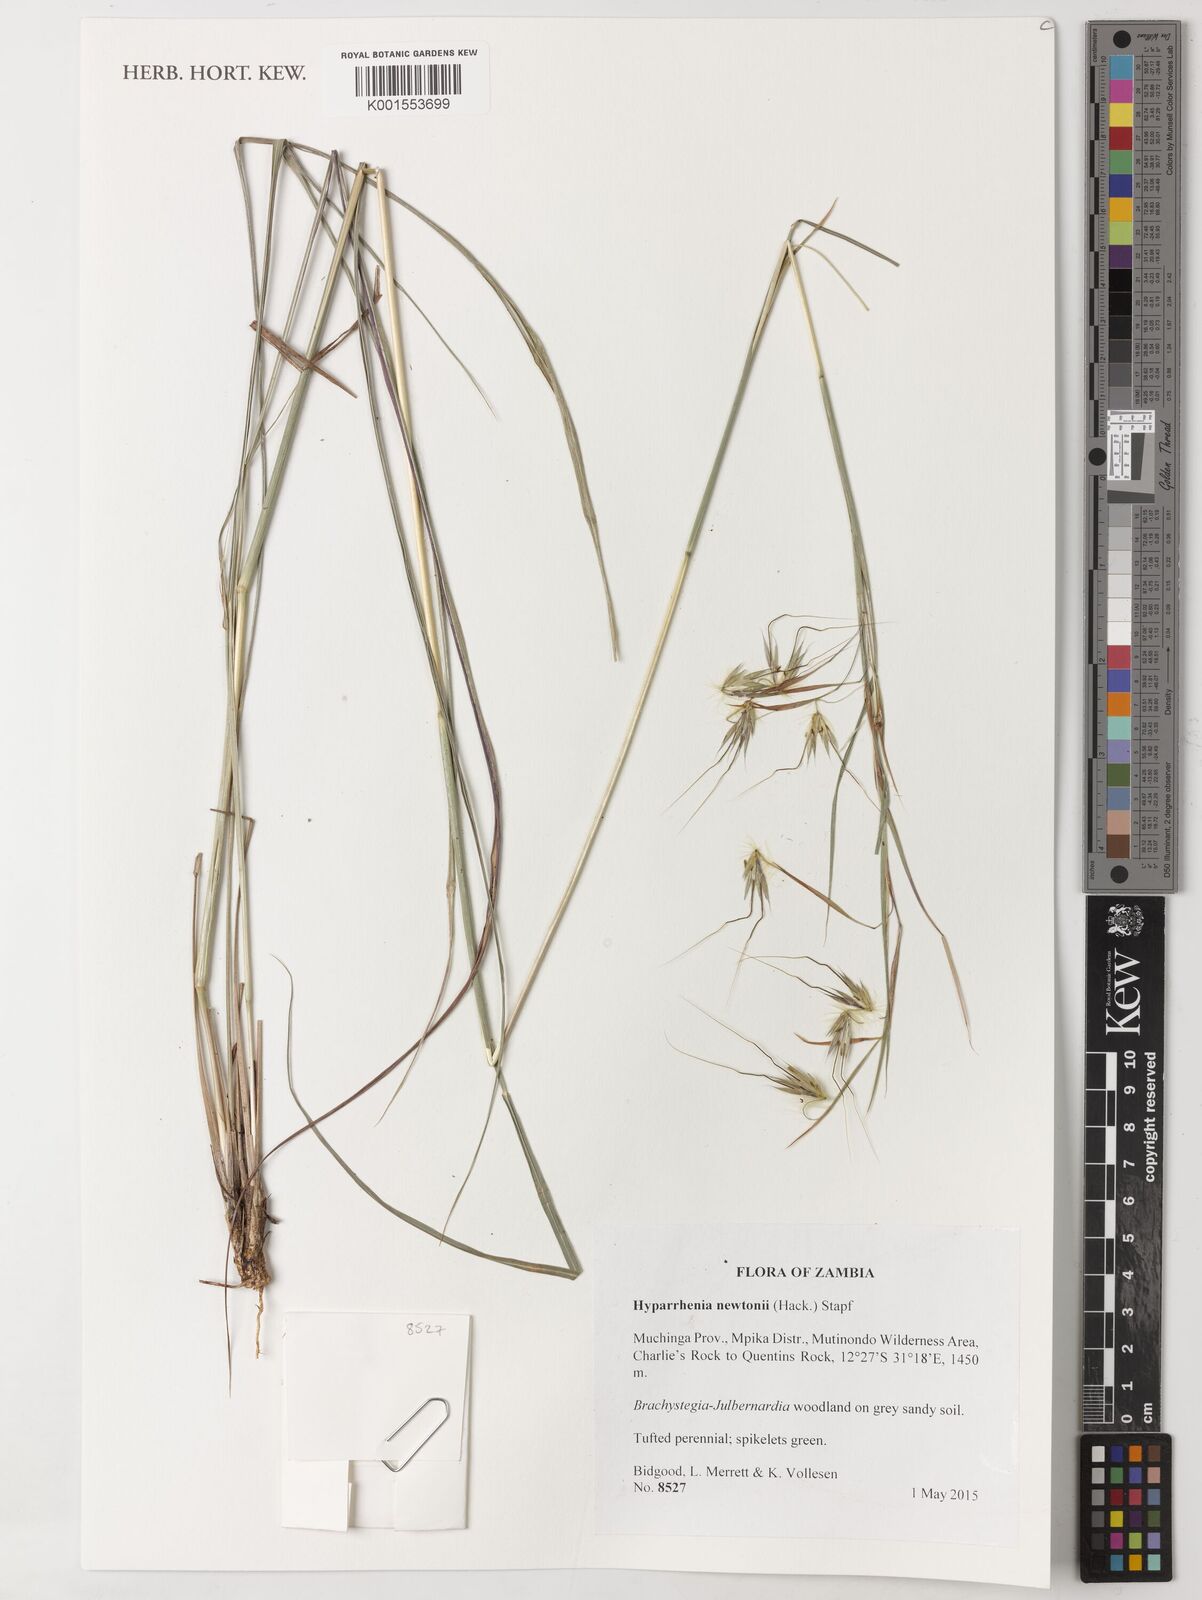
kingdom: Plantae
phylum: Tracheophyta
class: Liliopsida
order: Poales
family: Poaceae
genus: Hyparrhenia
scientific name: Hyparrhenia newtonii
